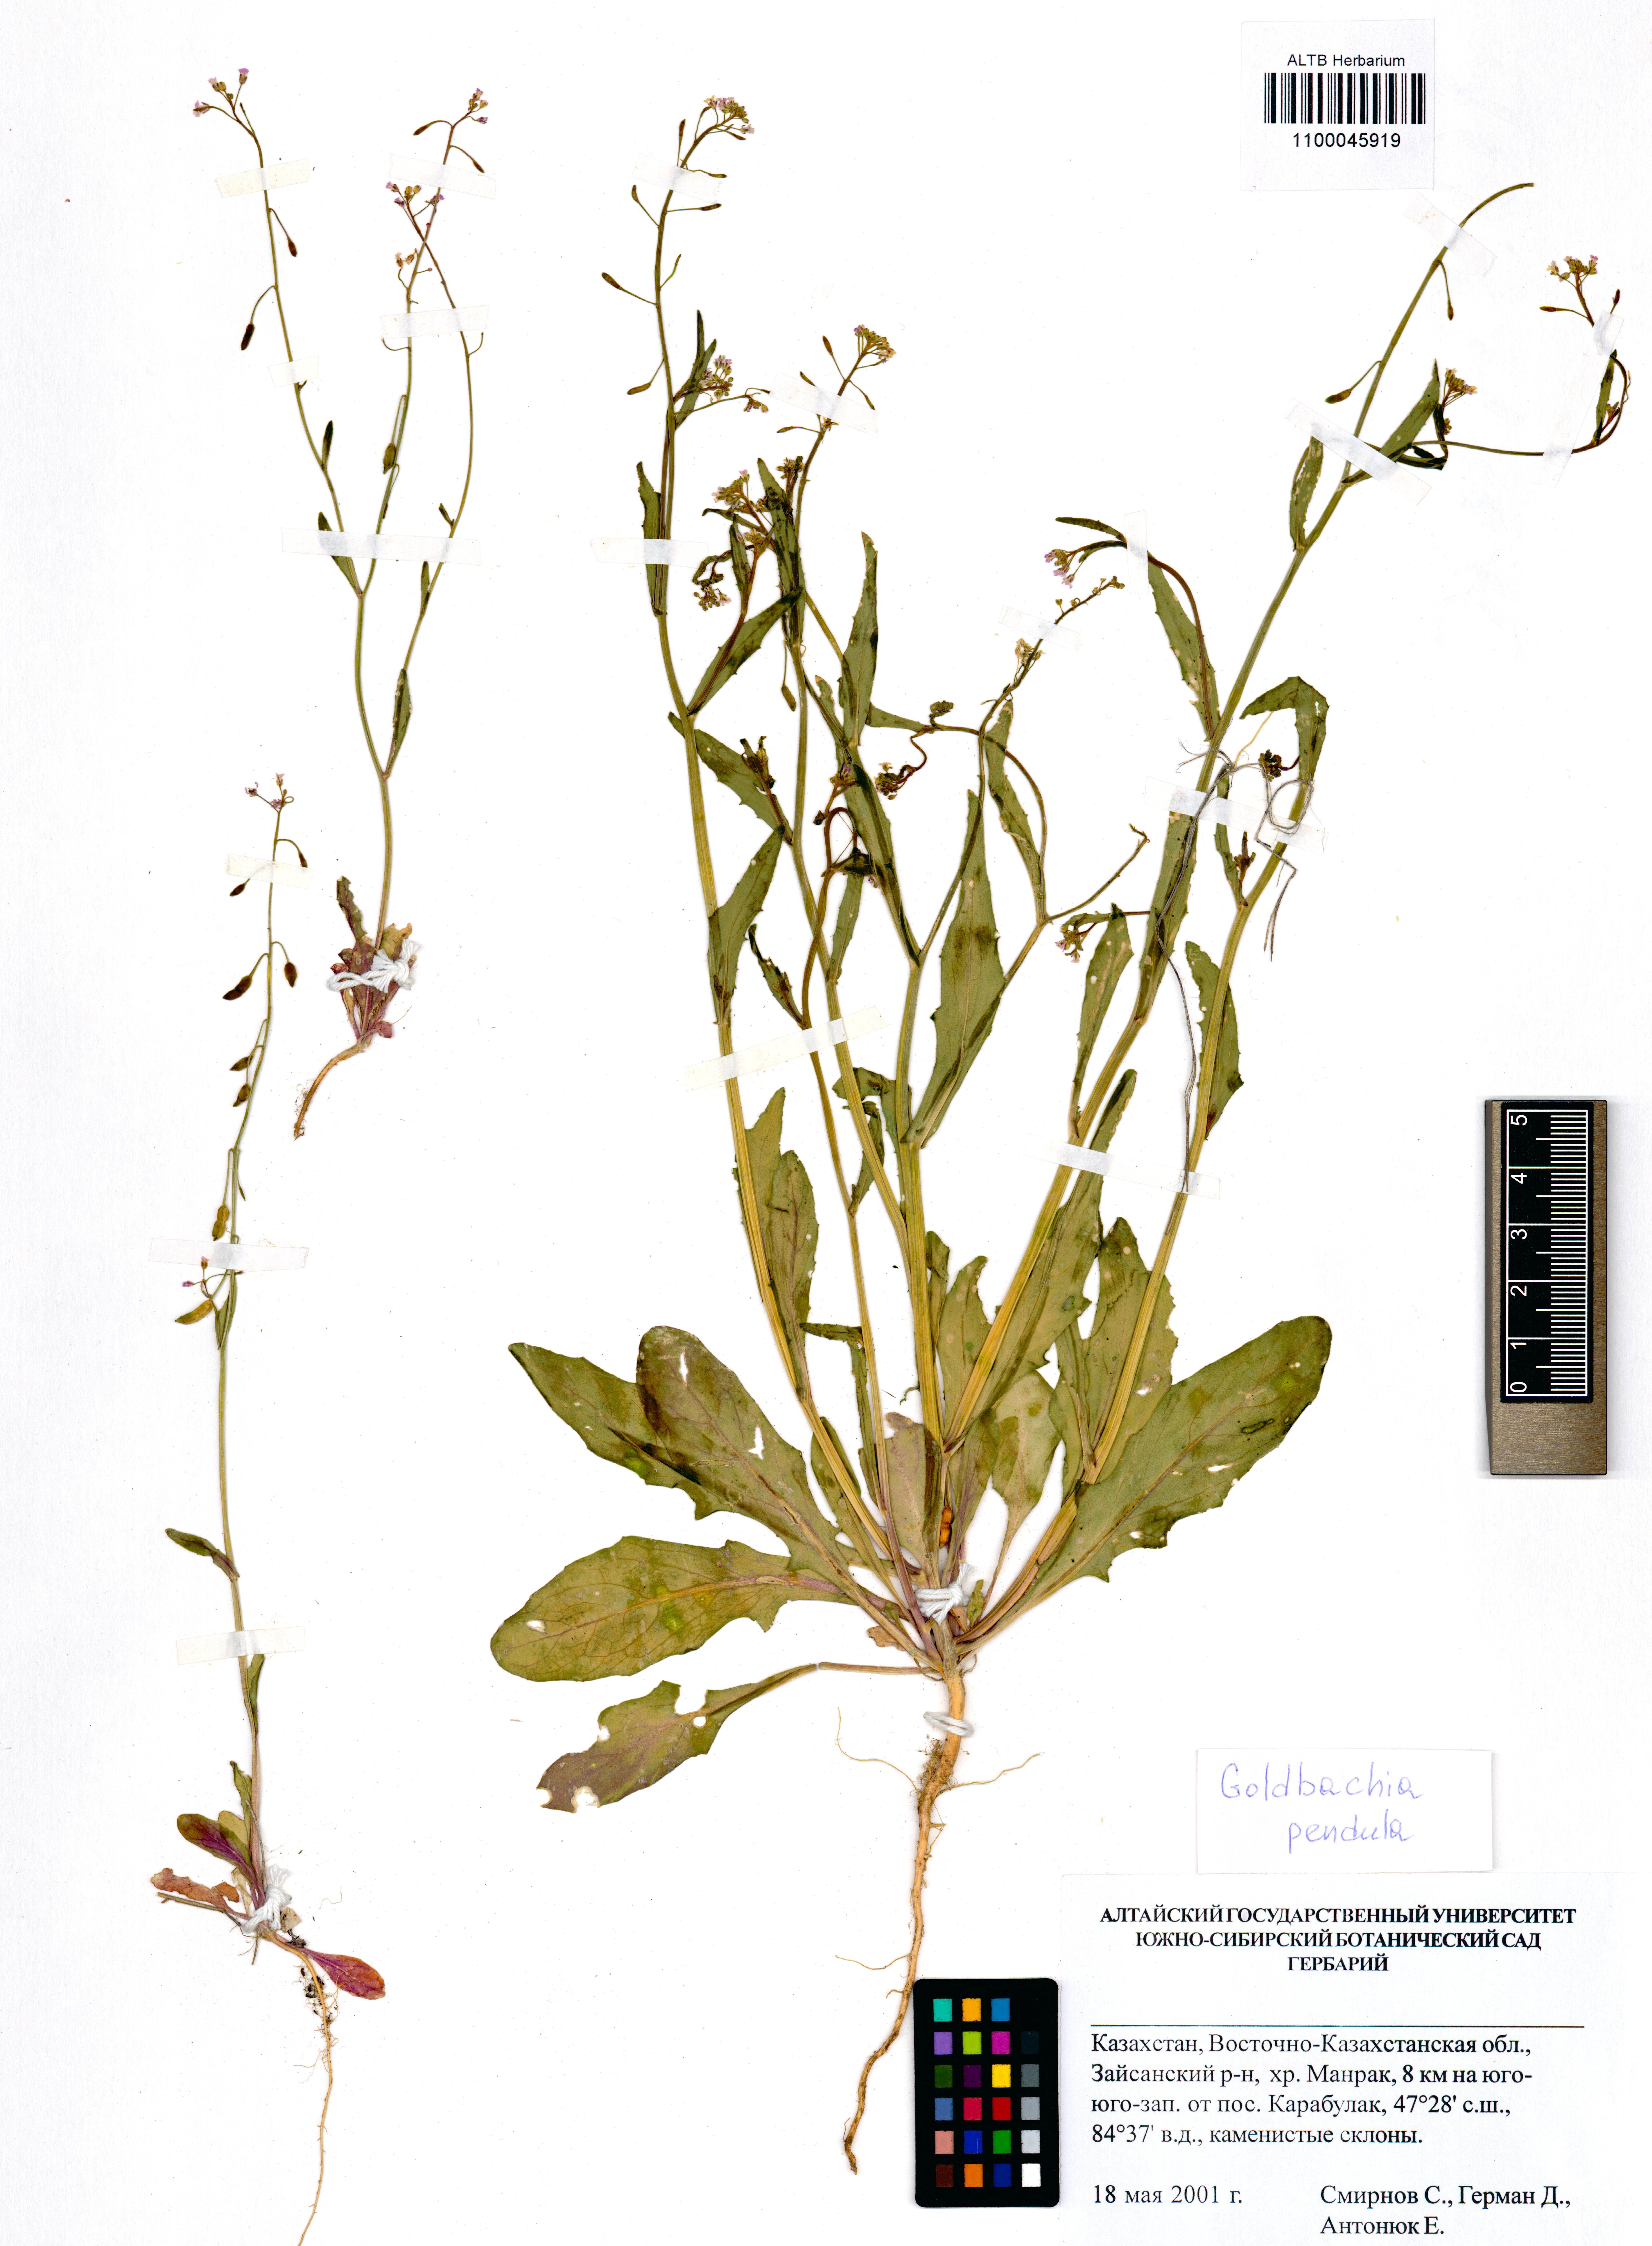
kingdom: Plantae
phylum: Tracheophyta
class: Magnoliopsida
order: Brassicales
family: Brassicaceae
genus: Goldbachia
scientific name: Goldbachia pendula
